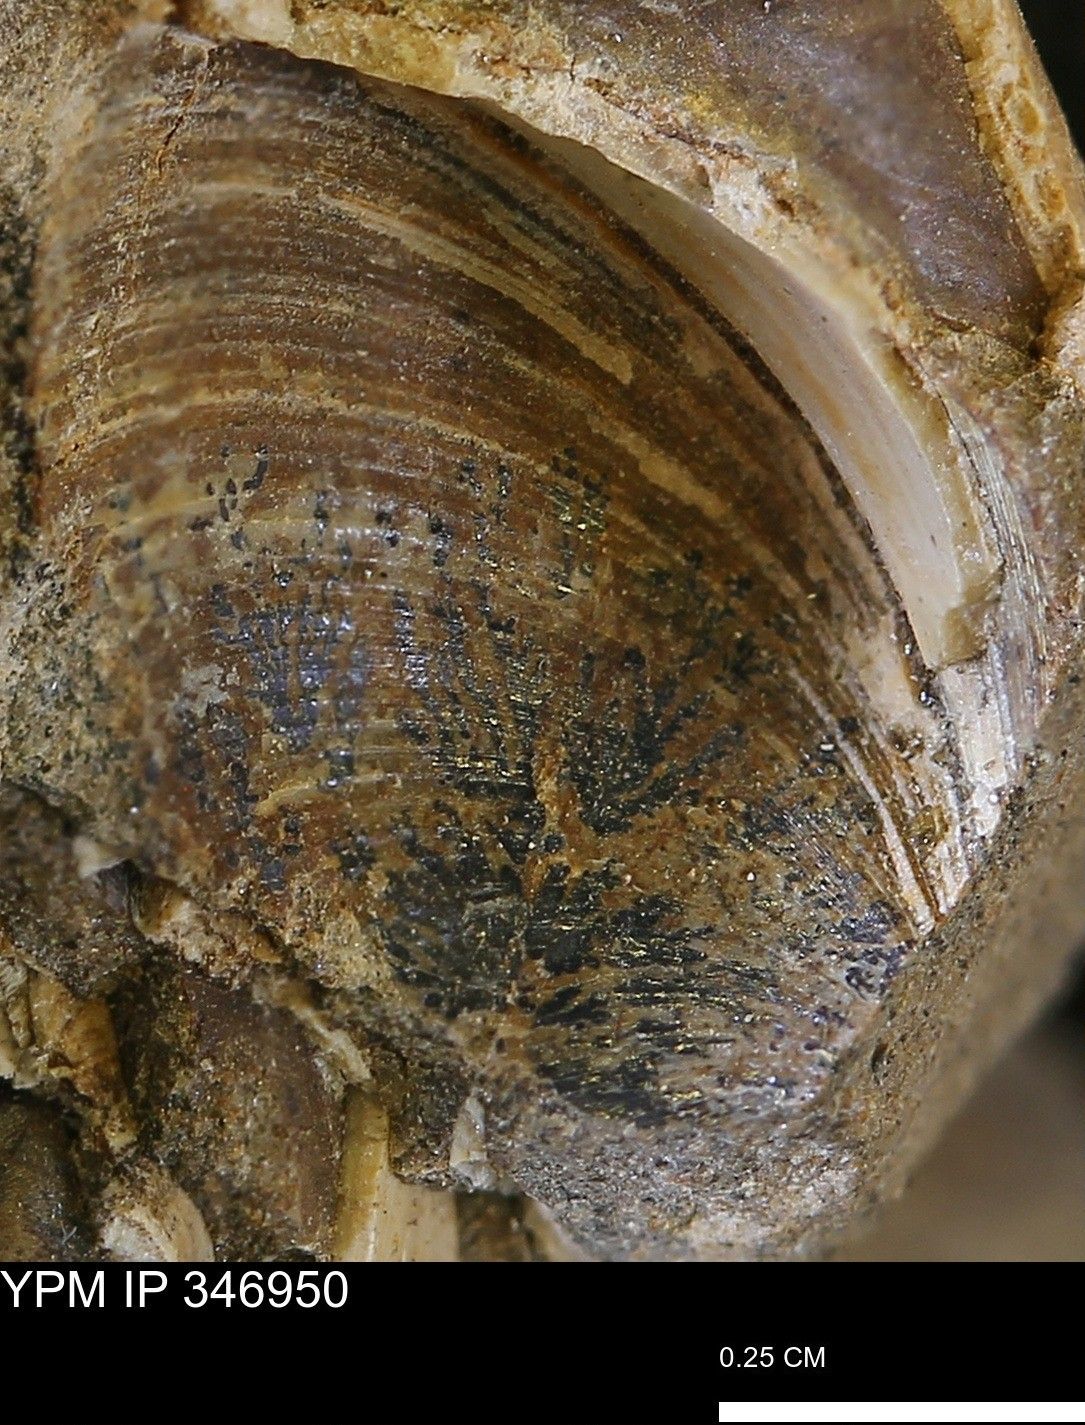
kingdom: Animalia
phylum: Mollusca
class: Bivalvia
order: Arcida
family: Limopsidae
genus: Limopsis
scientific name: Limopsis
